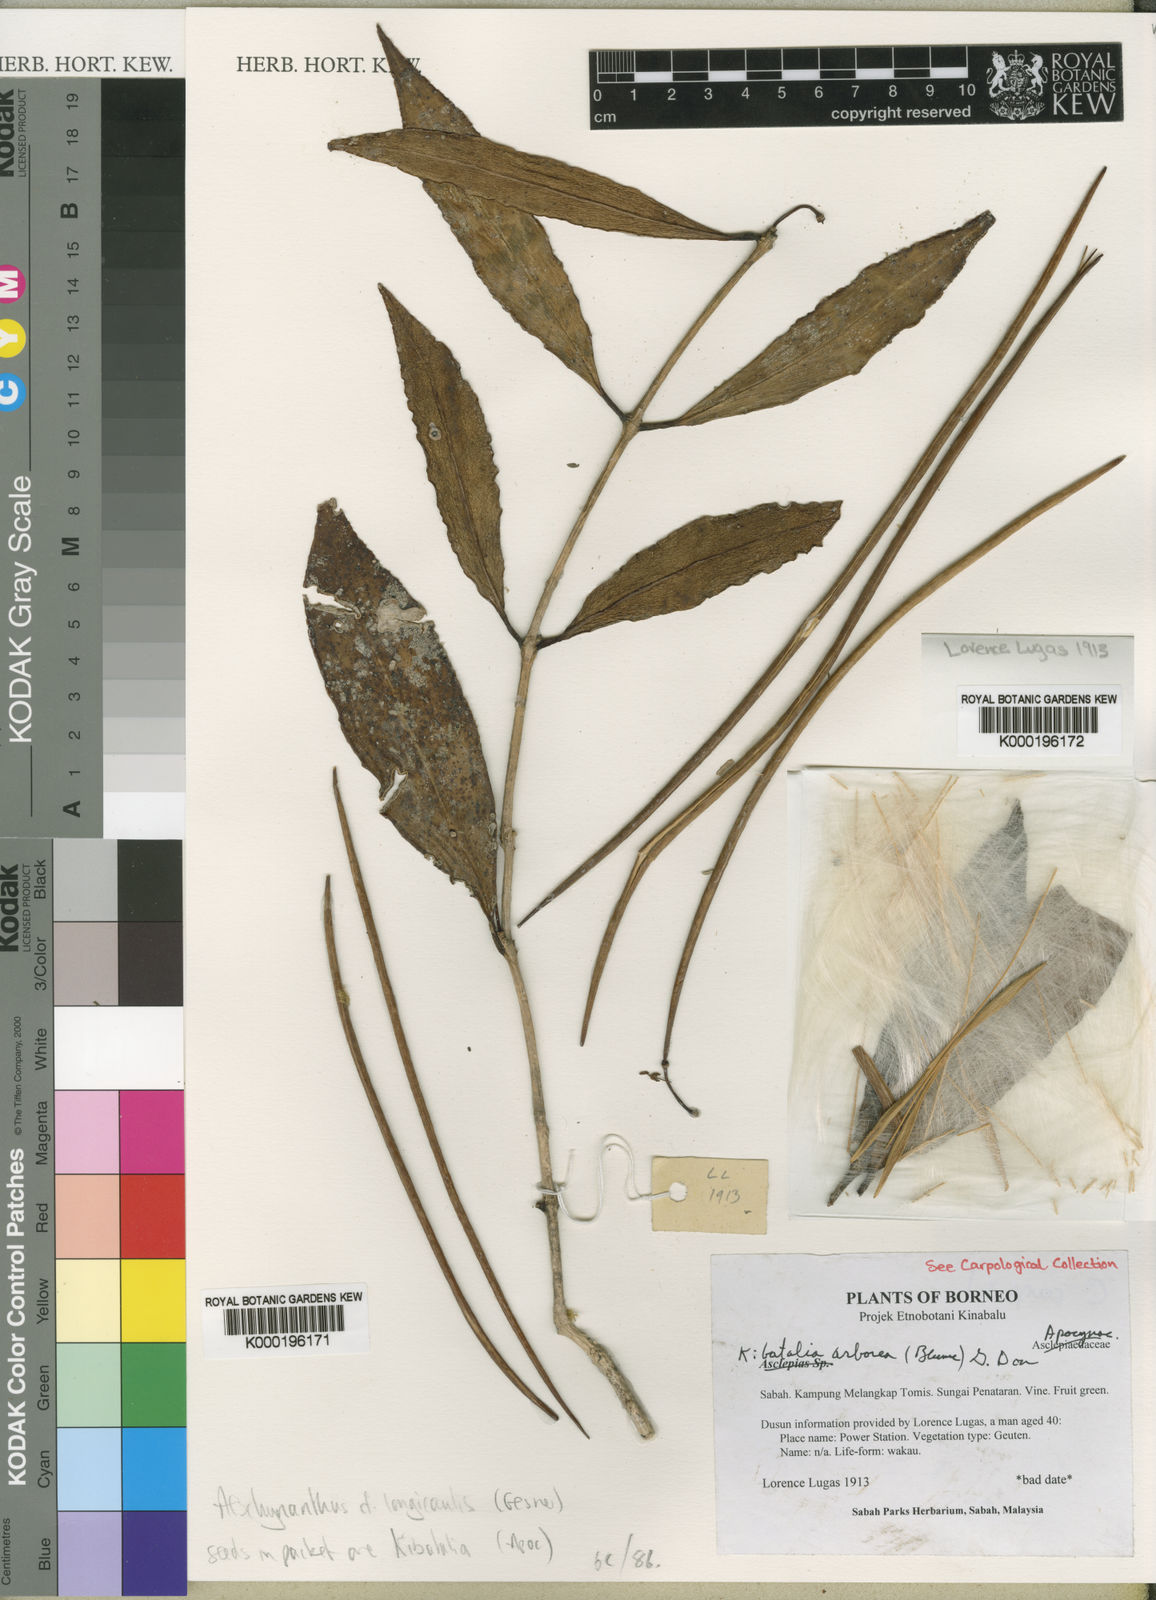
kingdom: Plantae
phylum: Tracheophyta
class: Magnoliopsida
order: Gentianales
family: Apocynaceae
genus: Kibatalia
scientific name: Kibatalia
